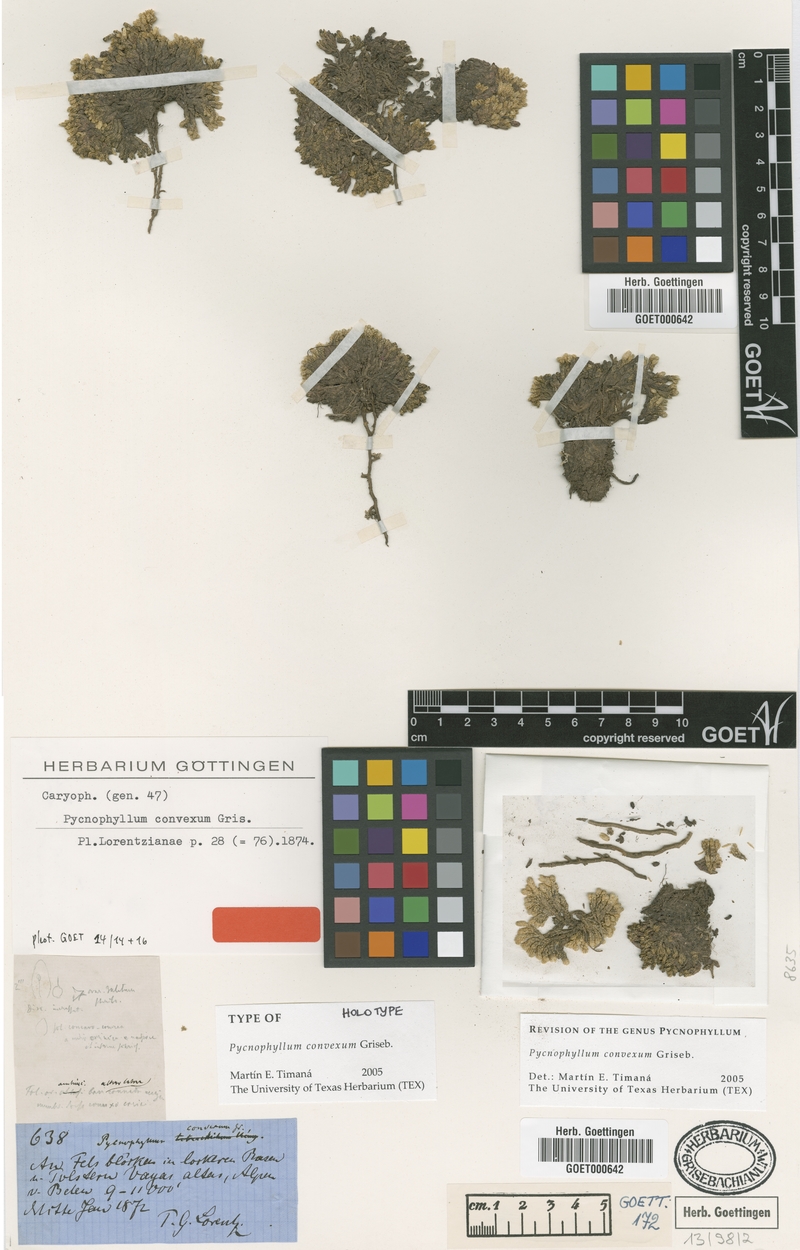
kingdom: Plantae
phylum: Tracheophyta
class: Magnoliopsida
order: Caryophyllales
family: Caryophyllaceae
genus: Pycnophyllum
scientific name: Pycnophyllum convexum
